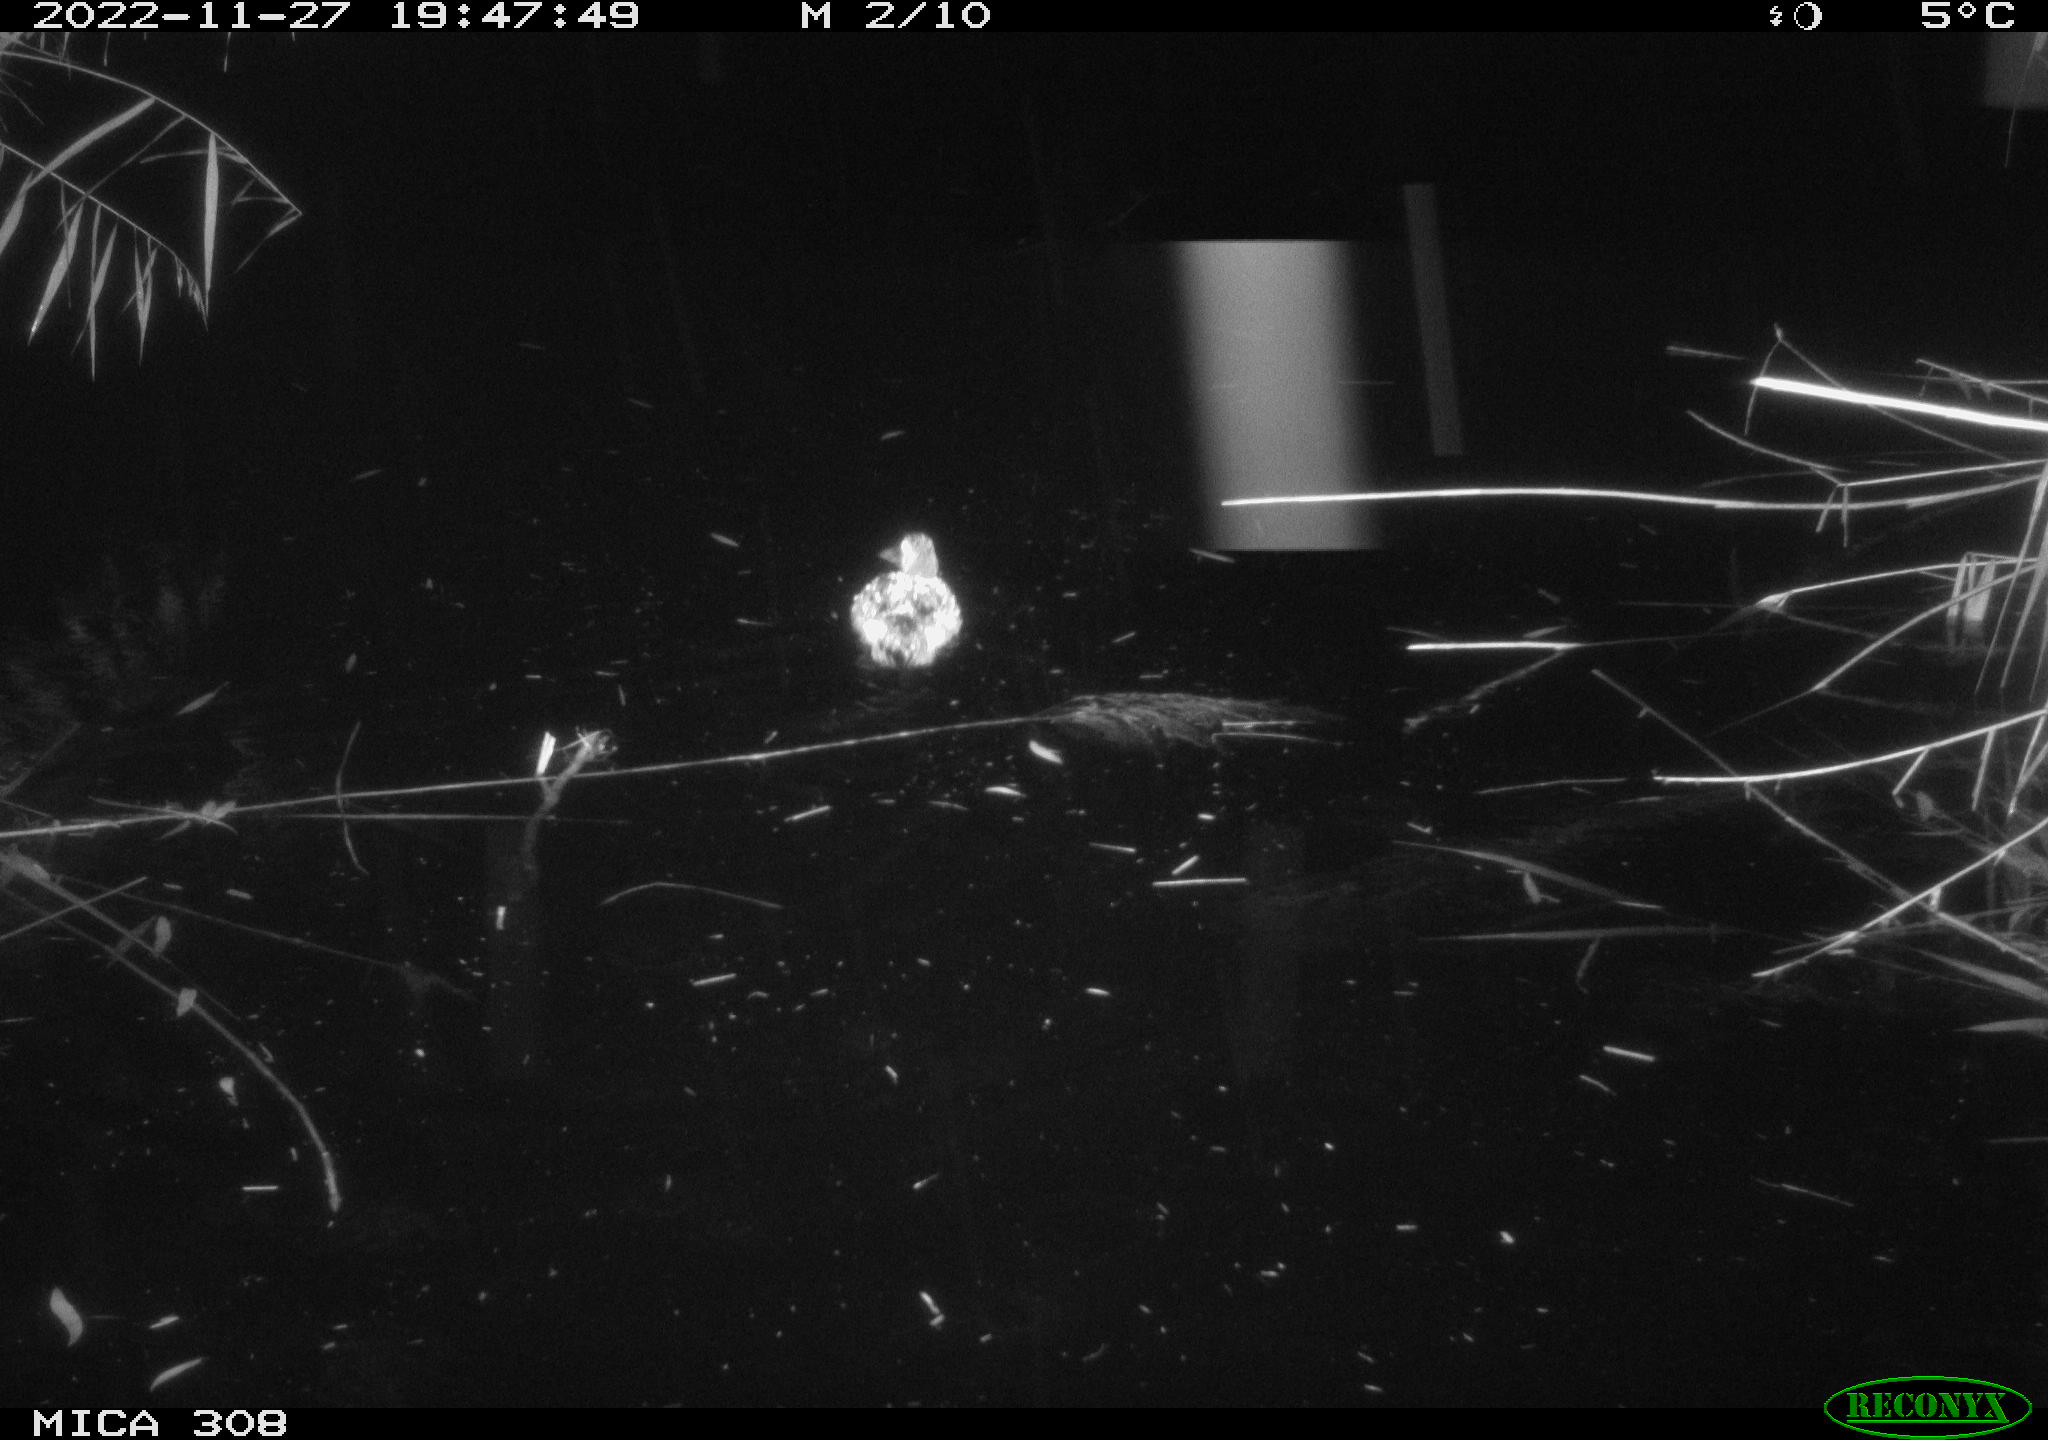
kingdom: Animalia
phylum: Chordata
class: Aves
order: Anseriformes
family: Anatidae
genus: Anas
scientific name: Anas
